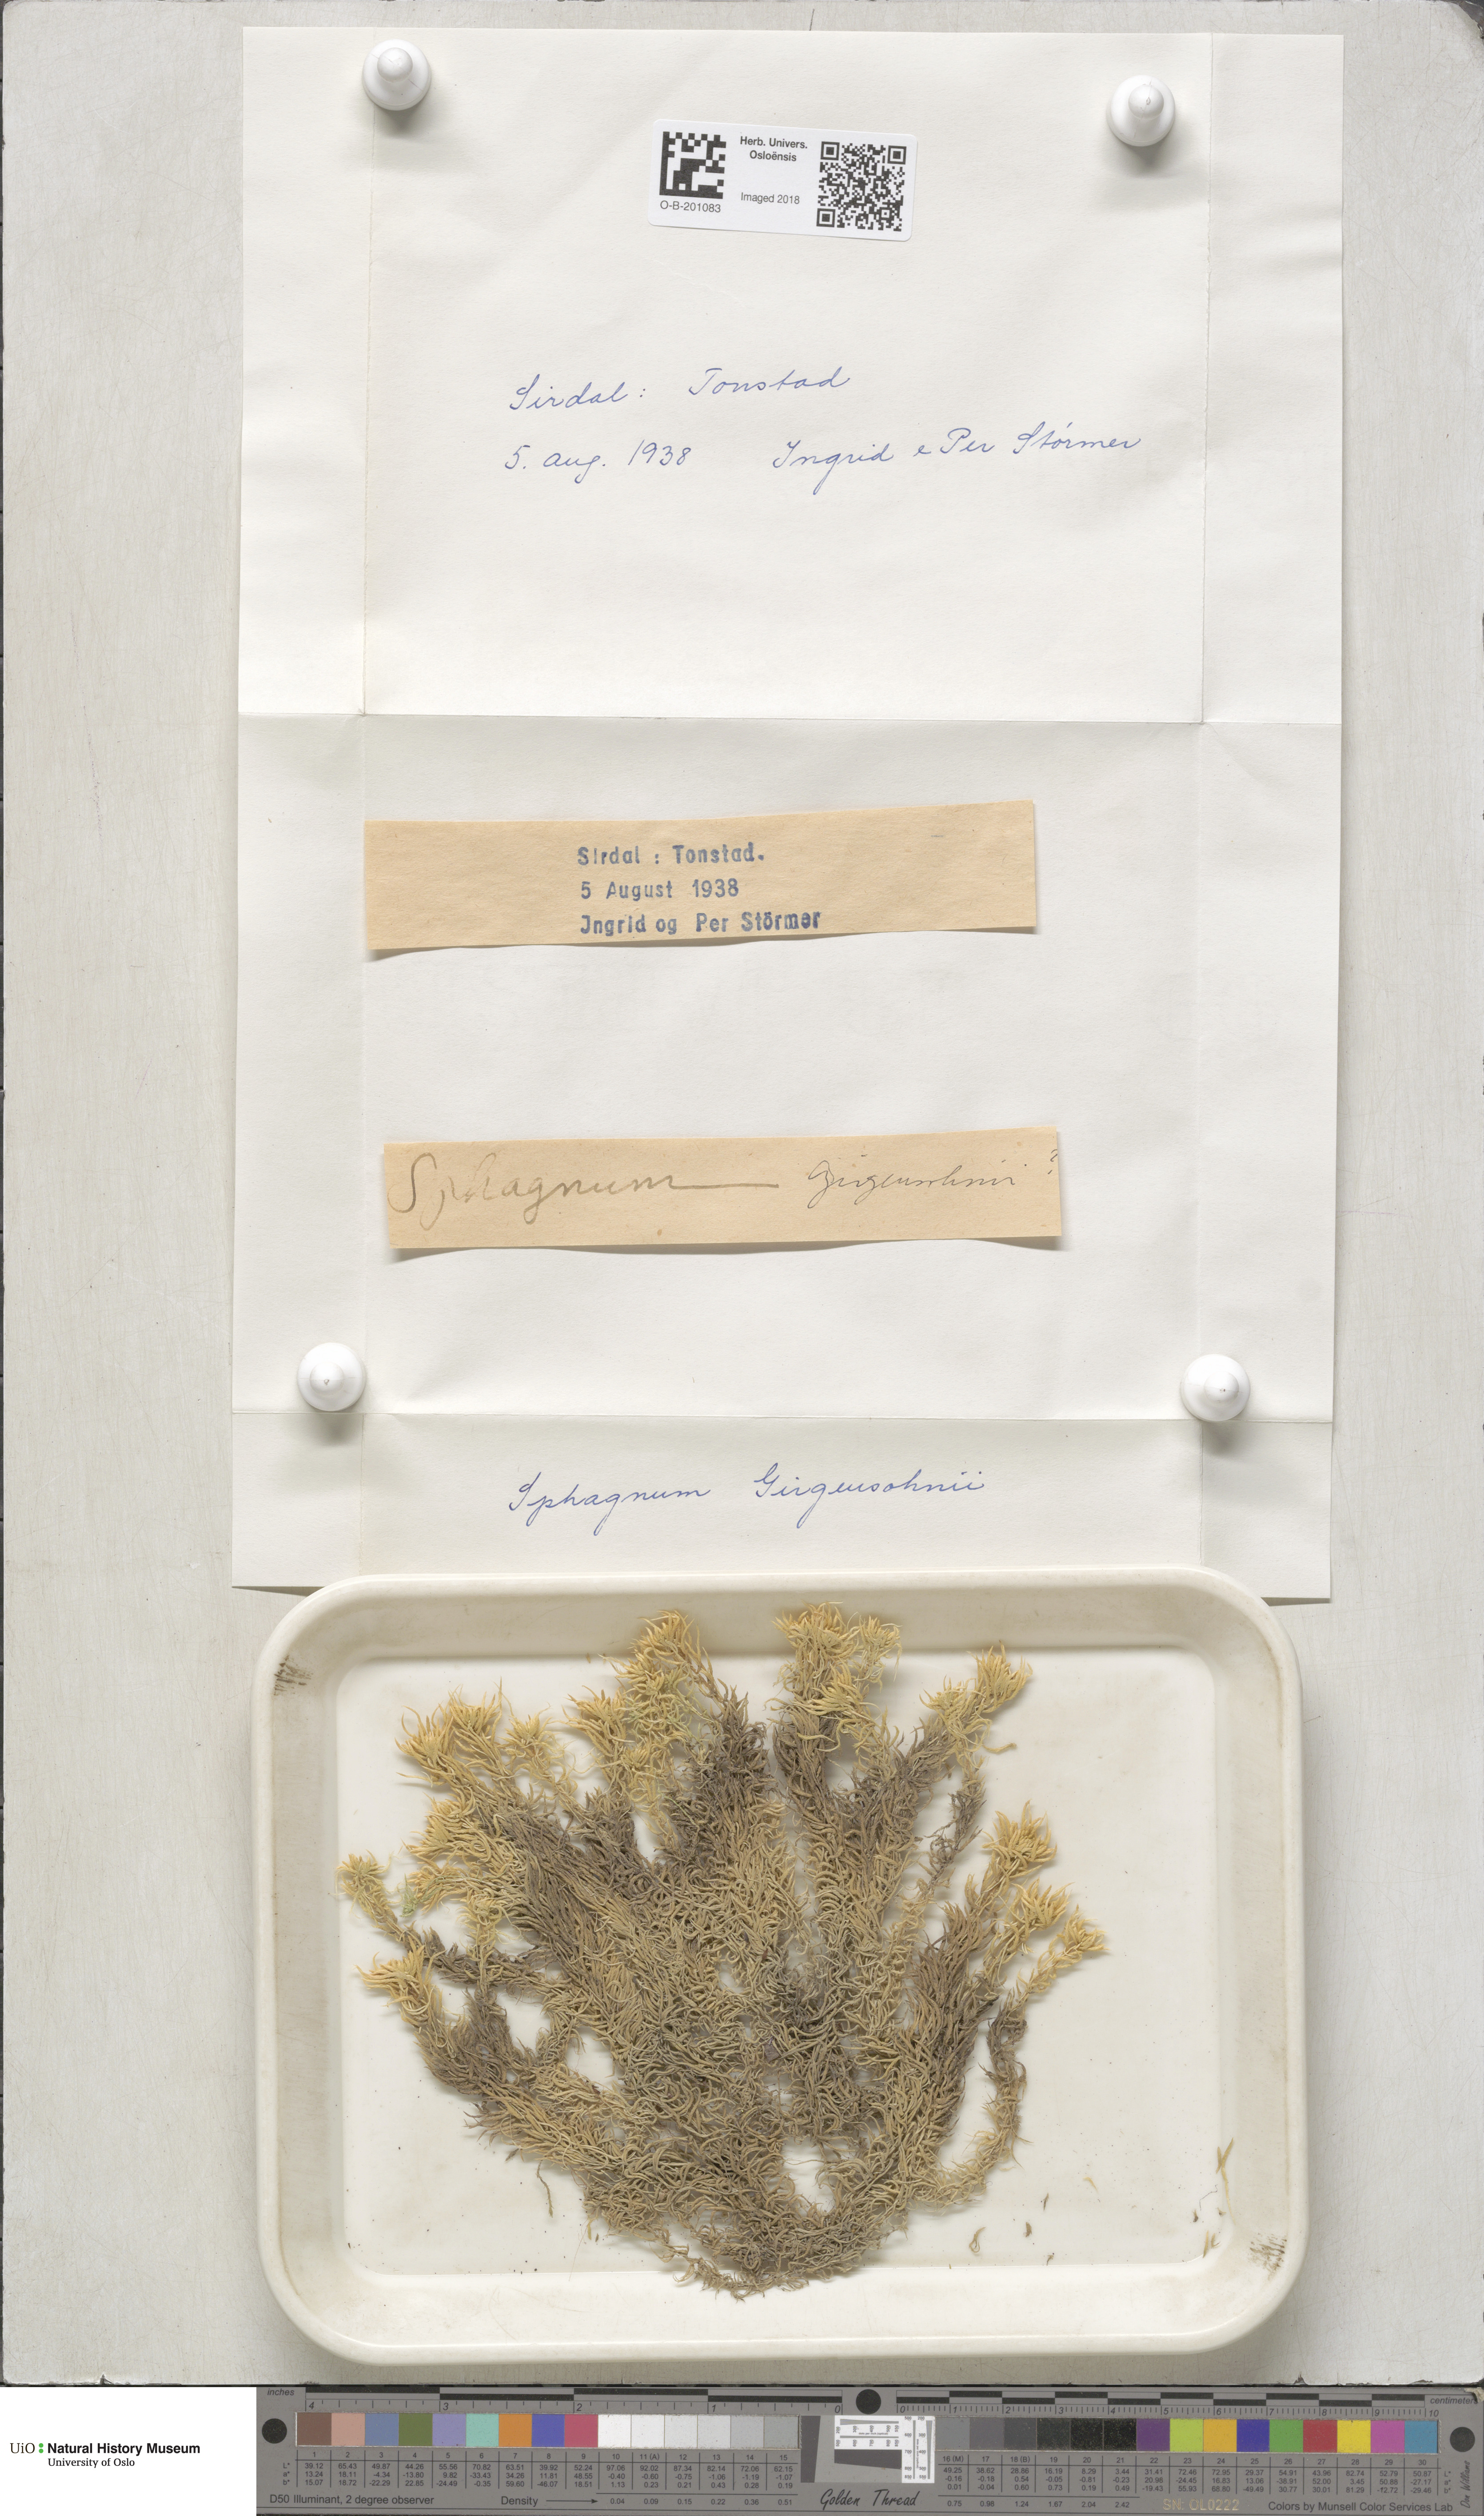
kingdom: Plantae
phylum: Bryophyta
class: Sphagnopsida
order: Sphagnales
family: Sphagnaceae
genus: Sphagnum
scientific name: Sphagnum girgensohnii
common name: Girgensohn's peat moss
